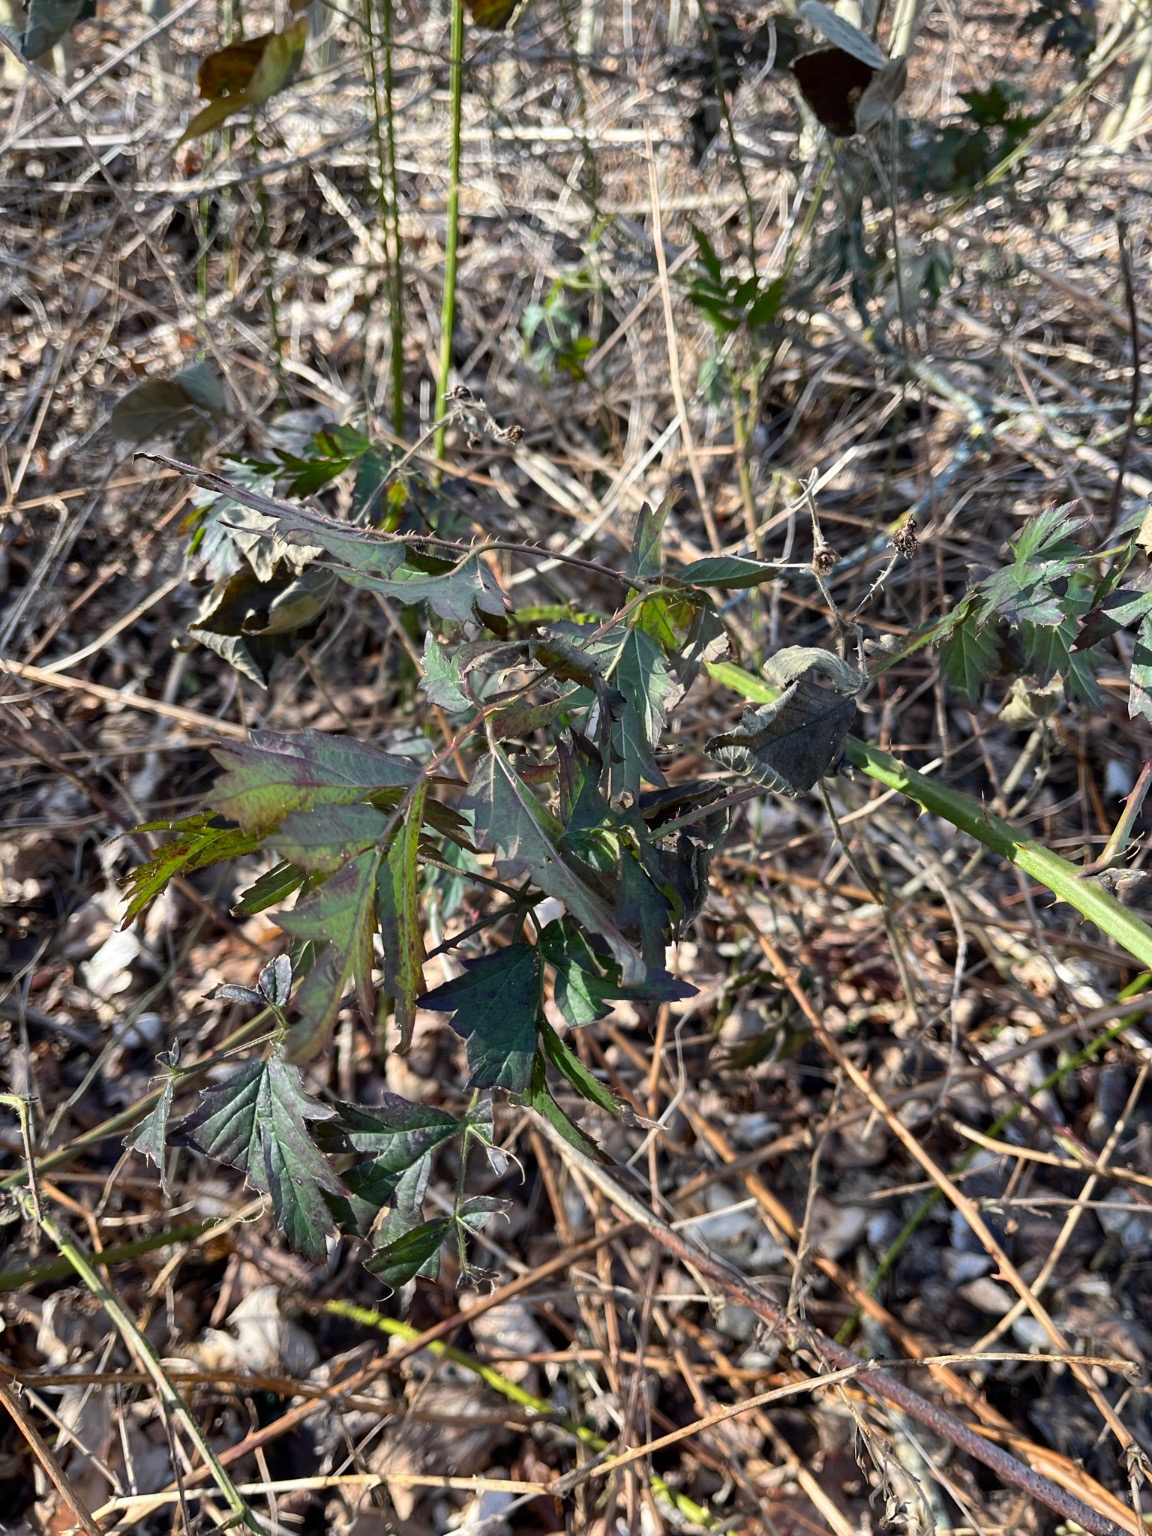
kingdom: Plantae
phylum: Tracheophyta
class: Magnoliopsida
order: Rosales
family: Rosaceae
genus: Rubus
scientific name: Rubus laciniatus
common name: Fliget brombær
